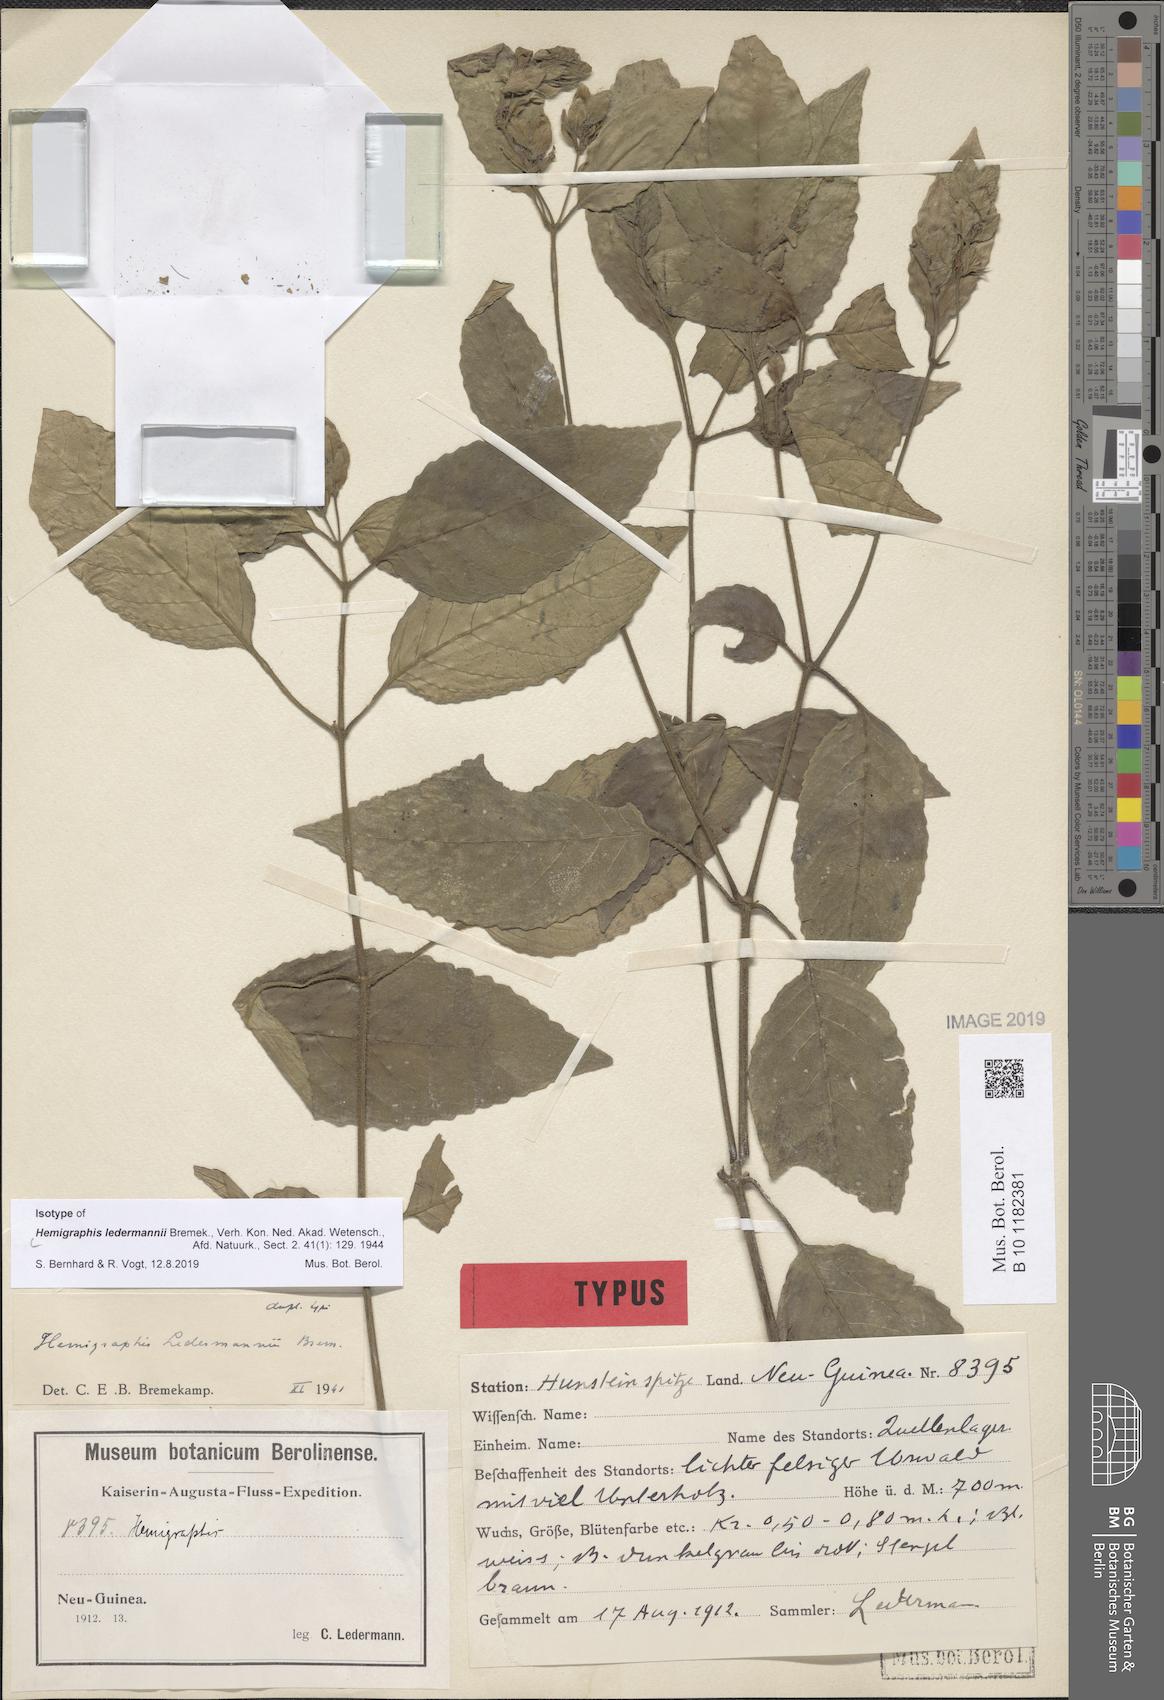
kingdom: Plantae
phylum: Tracheophyta
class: Magnoliopsida
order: Lamiales
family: Acanthaceae
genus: Hemigraphis
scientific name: Hemigraphis ledermannii
